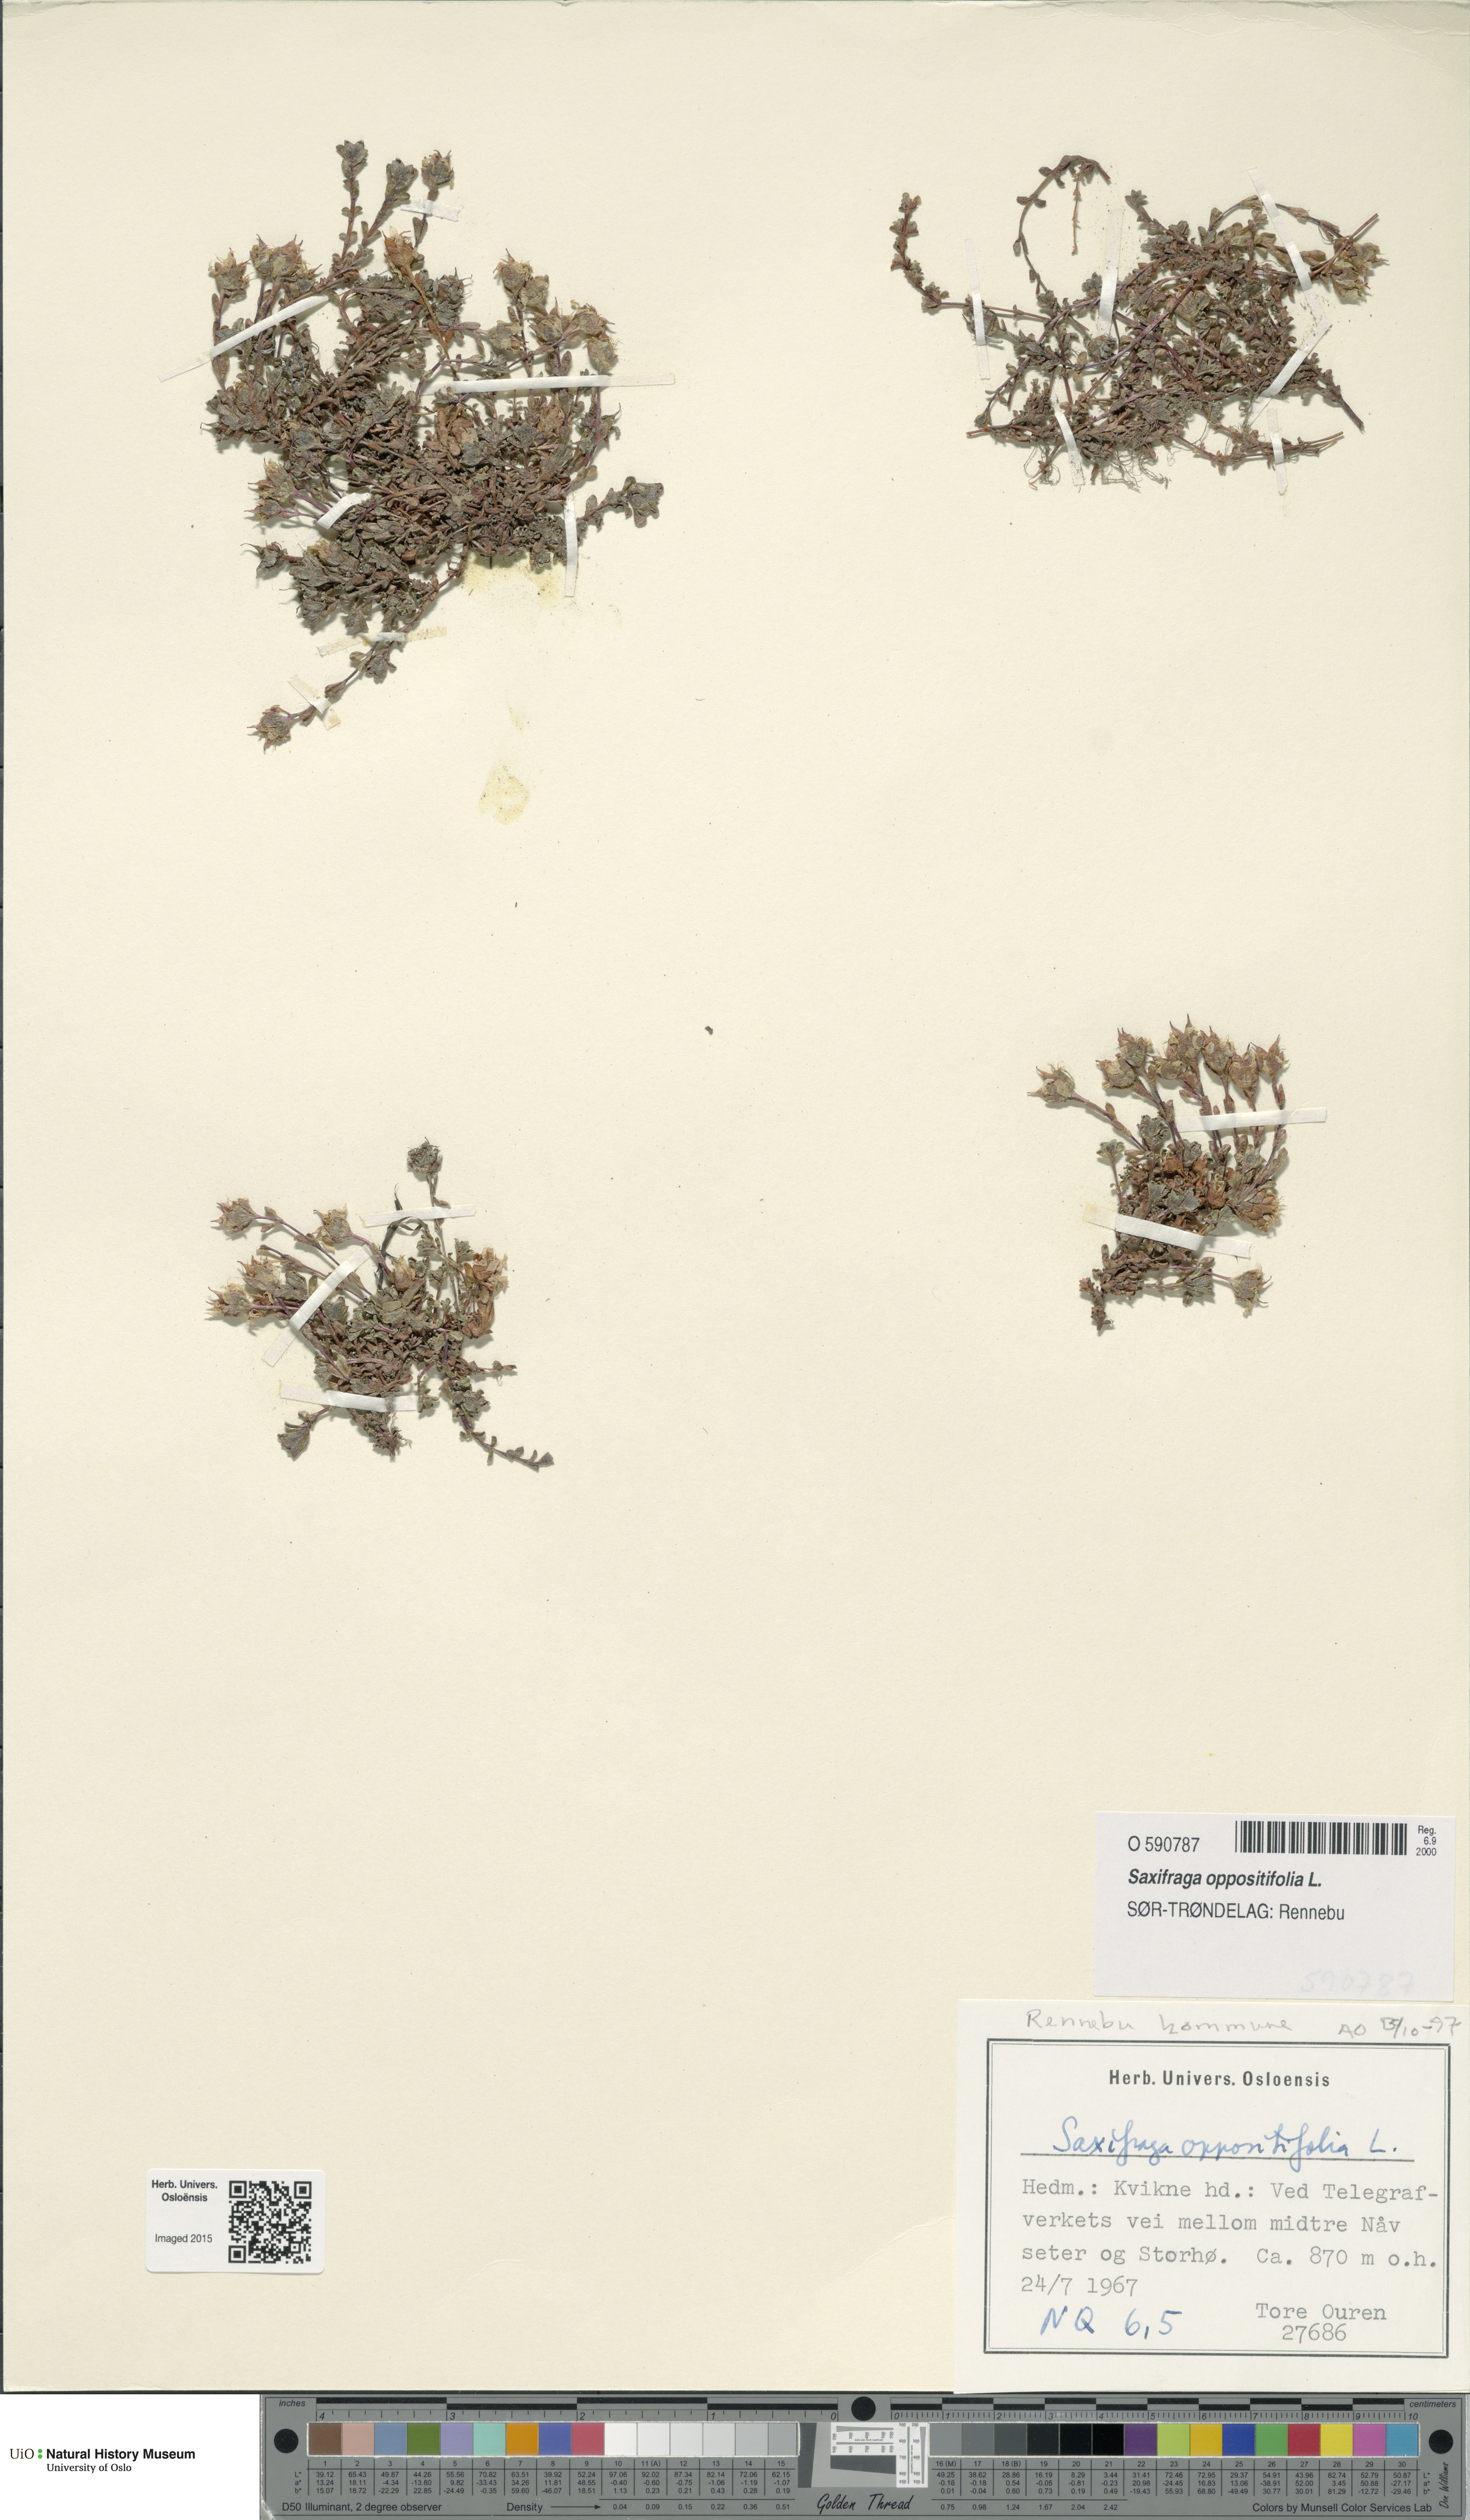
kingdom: Plantae
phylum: Tracheophyta
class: Magnoliopsida
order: Saxifragales
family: Saxifragaceae
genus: Saxifraga
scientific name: Saxifraga oppositifolia
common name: Purple saxifrage
